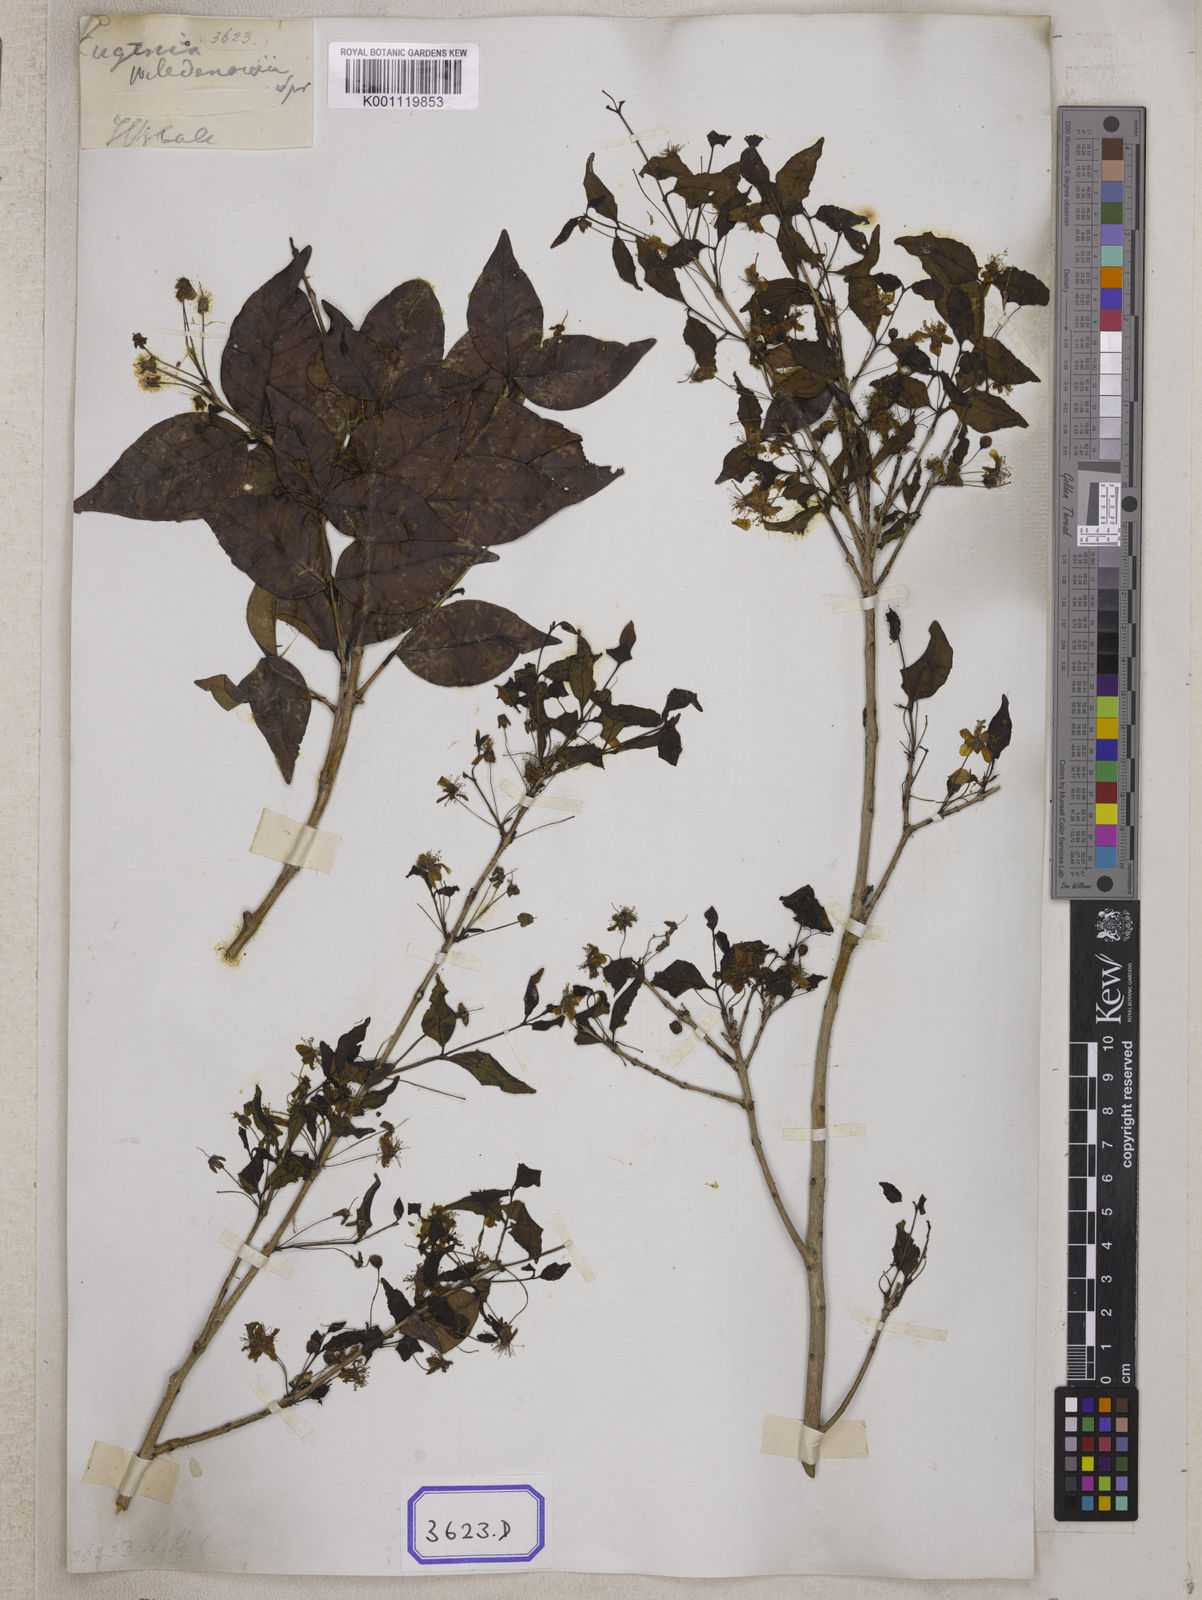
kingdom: Plantae
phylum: Tracheophyta
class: Magnoliopsida
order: Myrtales
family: Myrtaceae
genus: Eugenia
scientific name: Eugenia uniflora
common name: Surinam cherry
